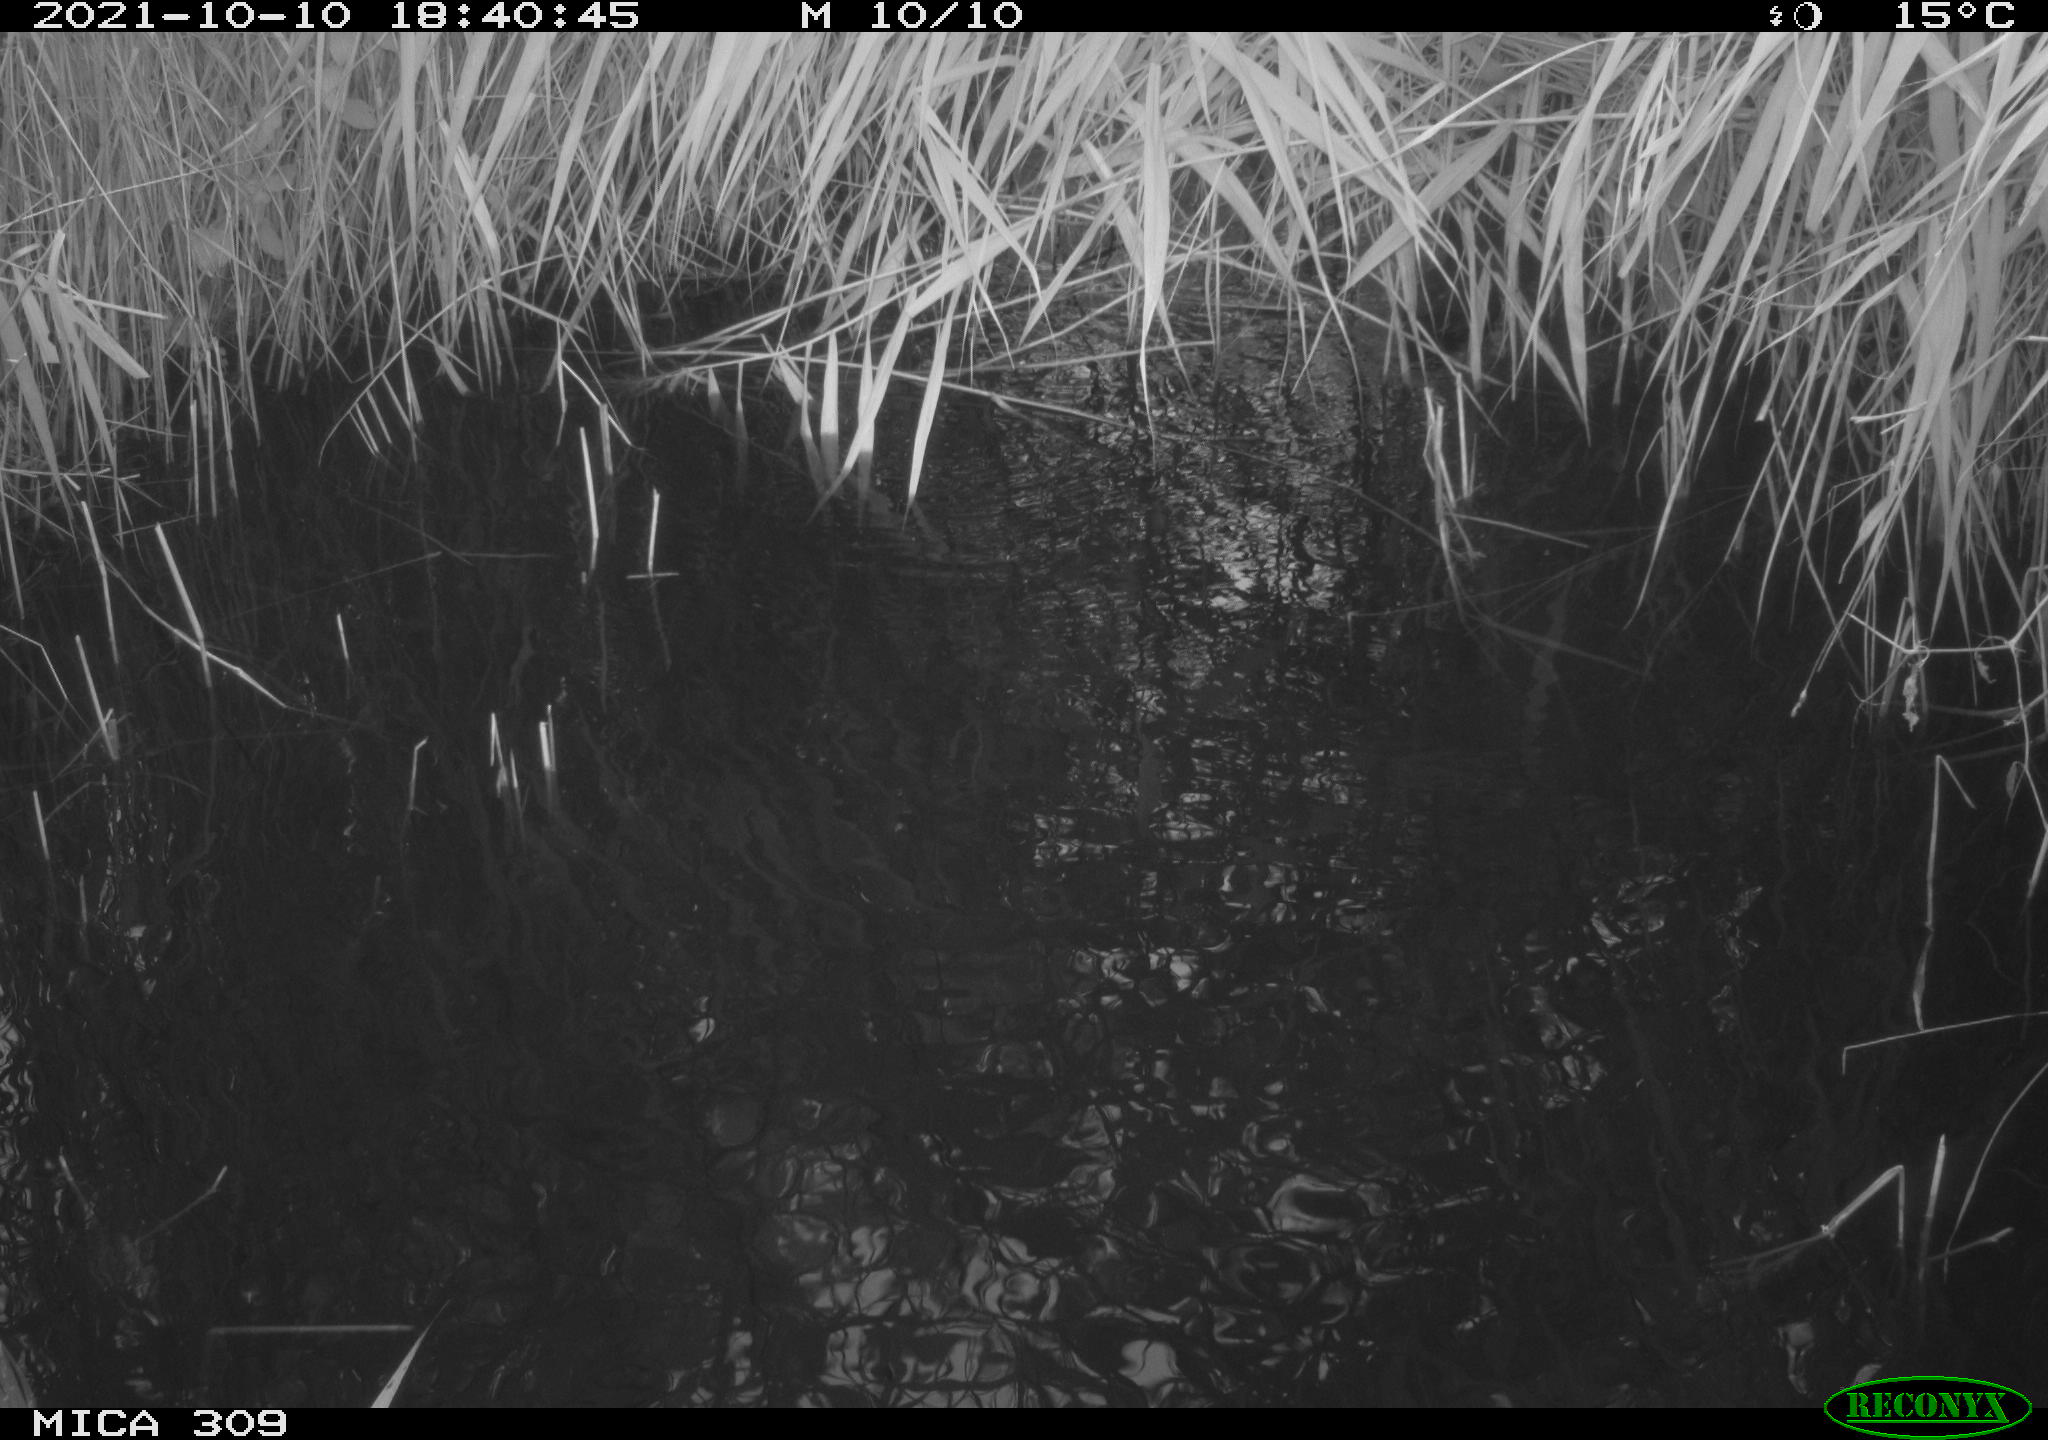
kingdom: Animalia
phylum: Chordata
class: Aves
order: Gruiformes
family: Rallidae
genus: Gallinula
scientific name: Gallinula chloropus
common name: Common moorhen
